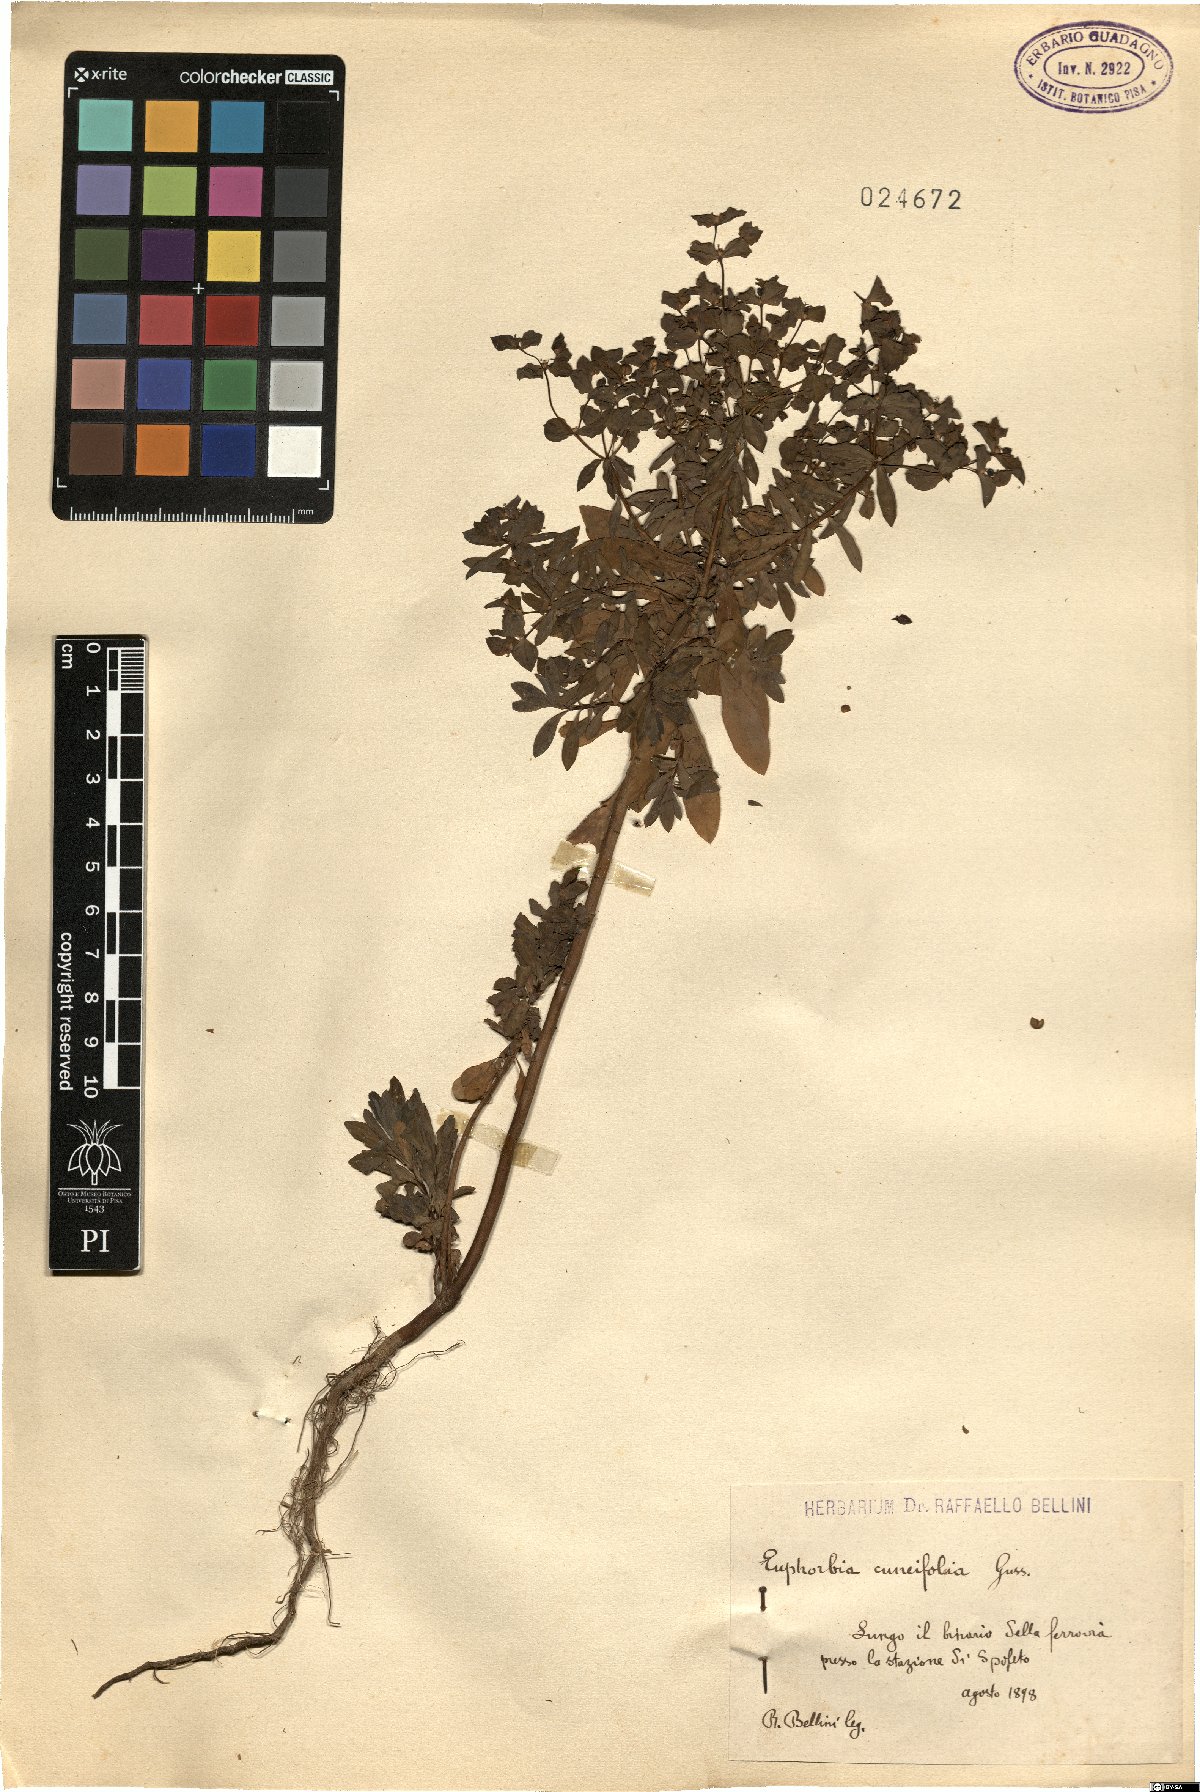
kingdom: Plantae
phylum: Tracheophyta
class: Magnoliopsida
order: Malpighiales
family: Euphorbiaceae
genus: Euphorbia
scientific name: Euphorbia cuneifolia
